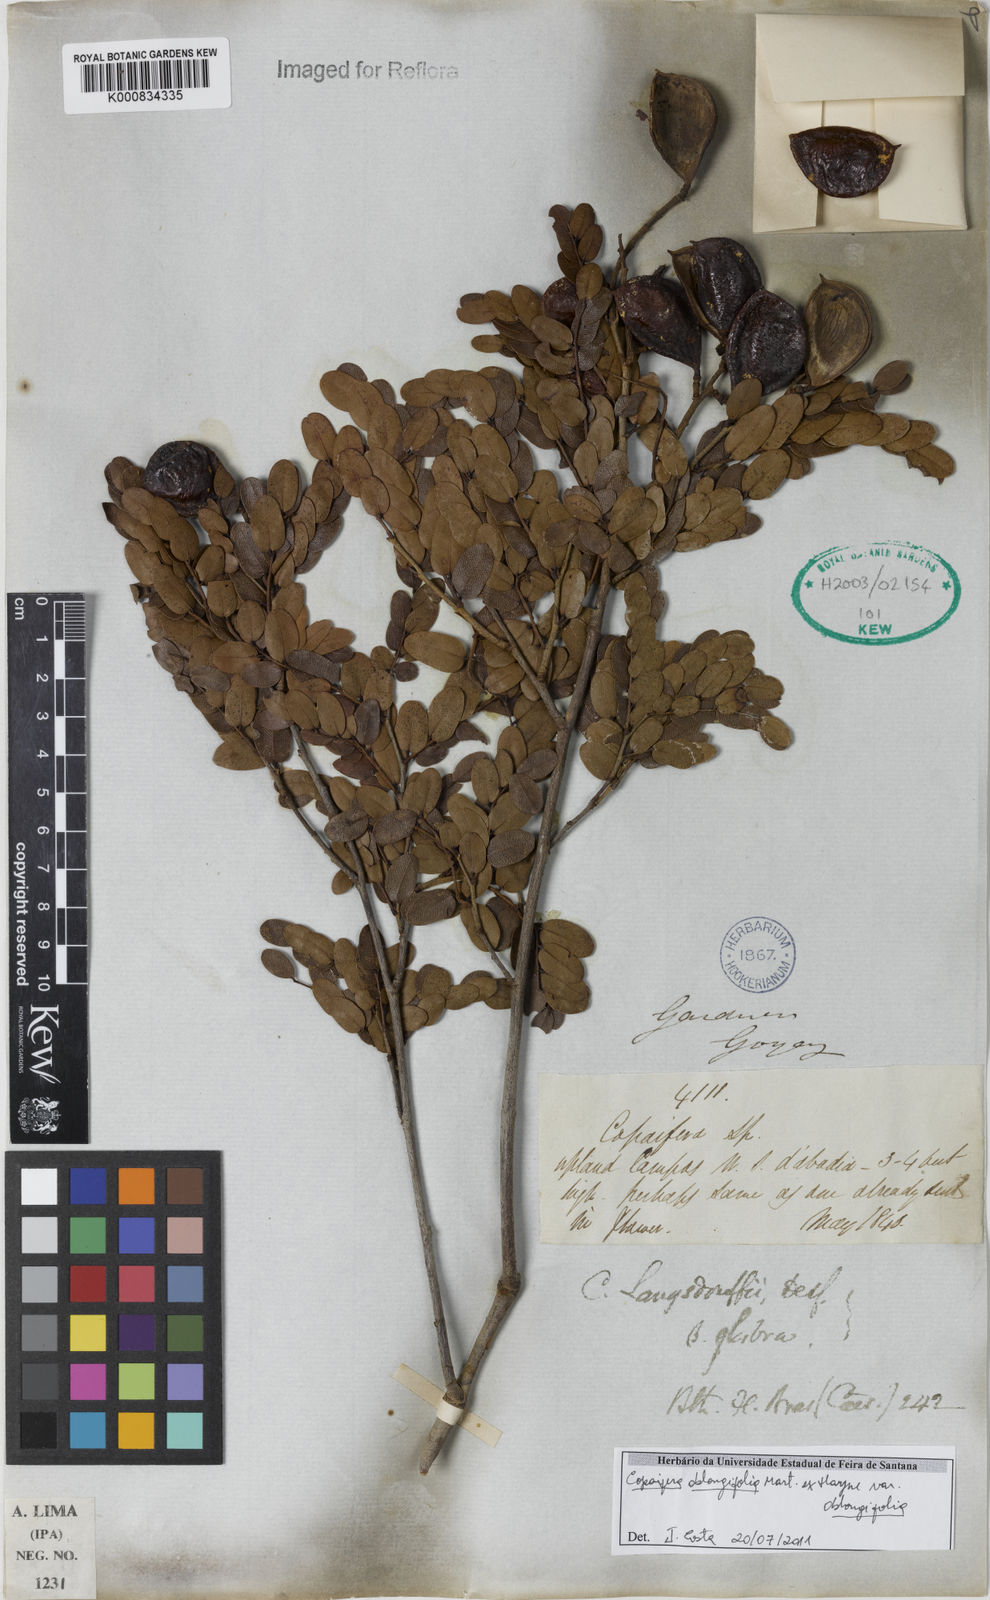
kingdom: Plantae
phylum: Tracheophyta
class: Magnoliopsida
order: Fabales
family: Fabaceae
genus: Copaifera
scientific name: Copaifera
